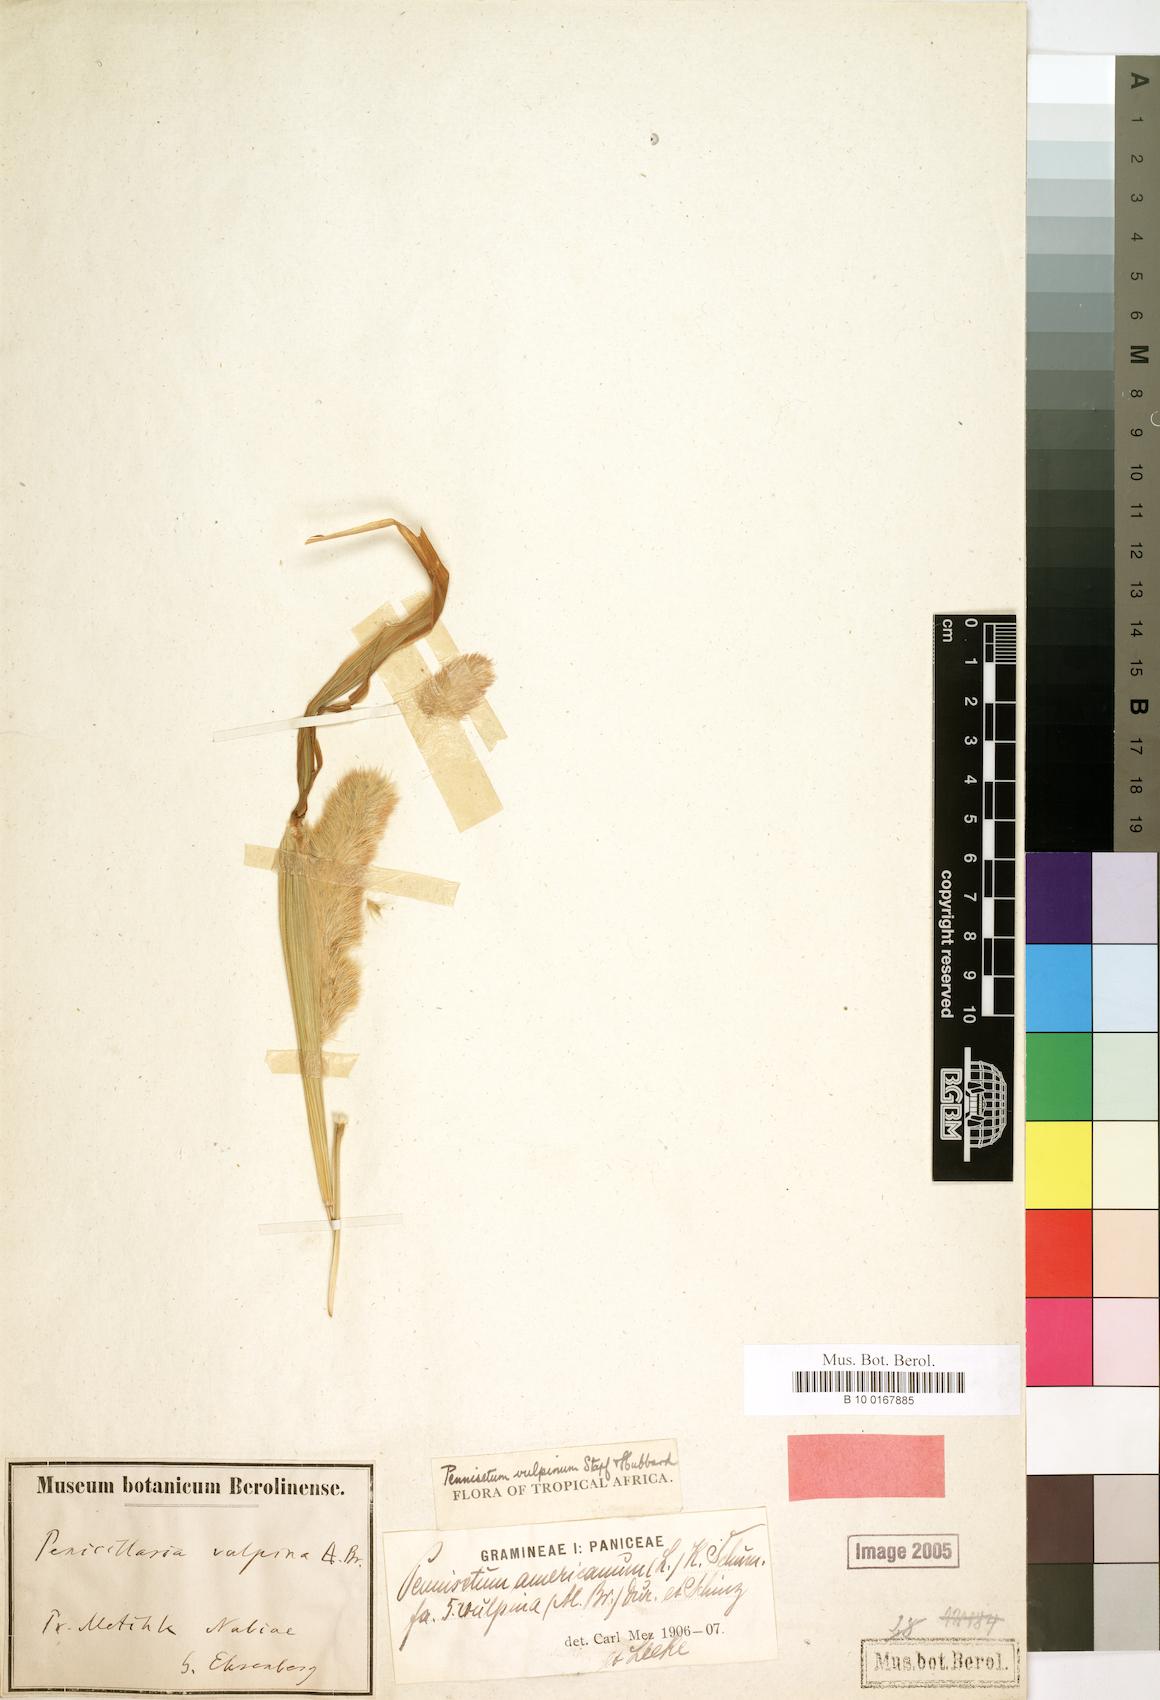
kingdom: Plantae
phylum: Tracheophyta
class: Liliopsida
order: Poales
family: Poaceae
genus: Cenchrus
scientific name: Cenchrus sieberianus
